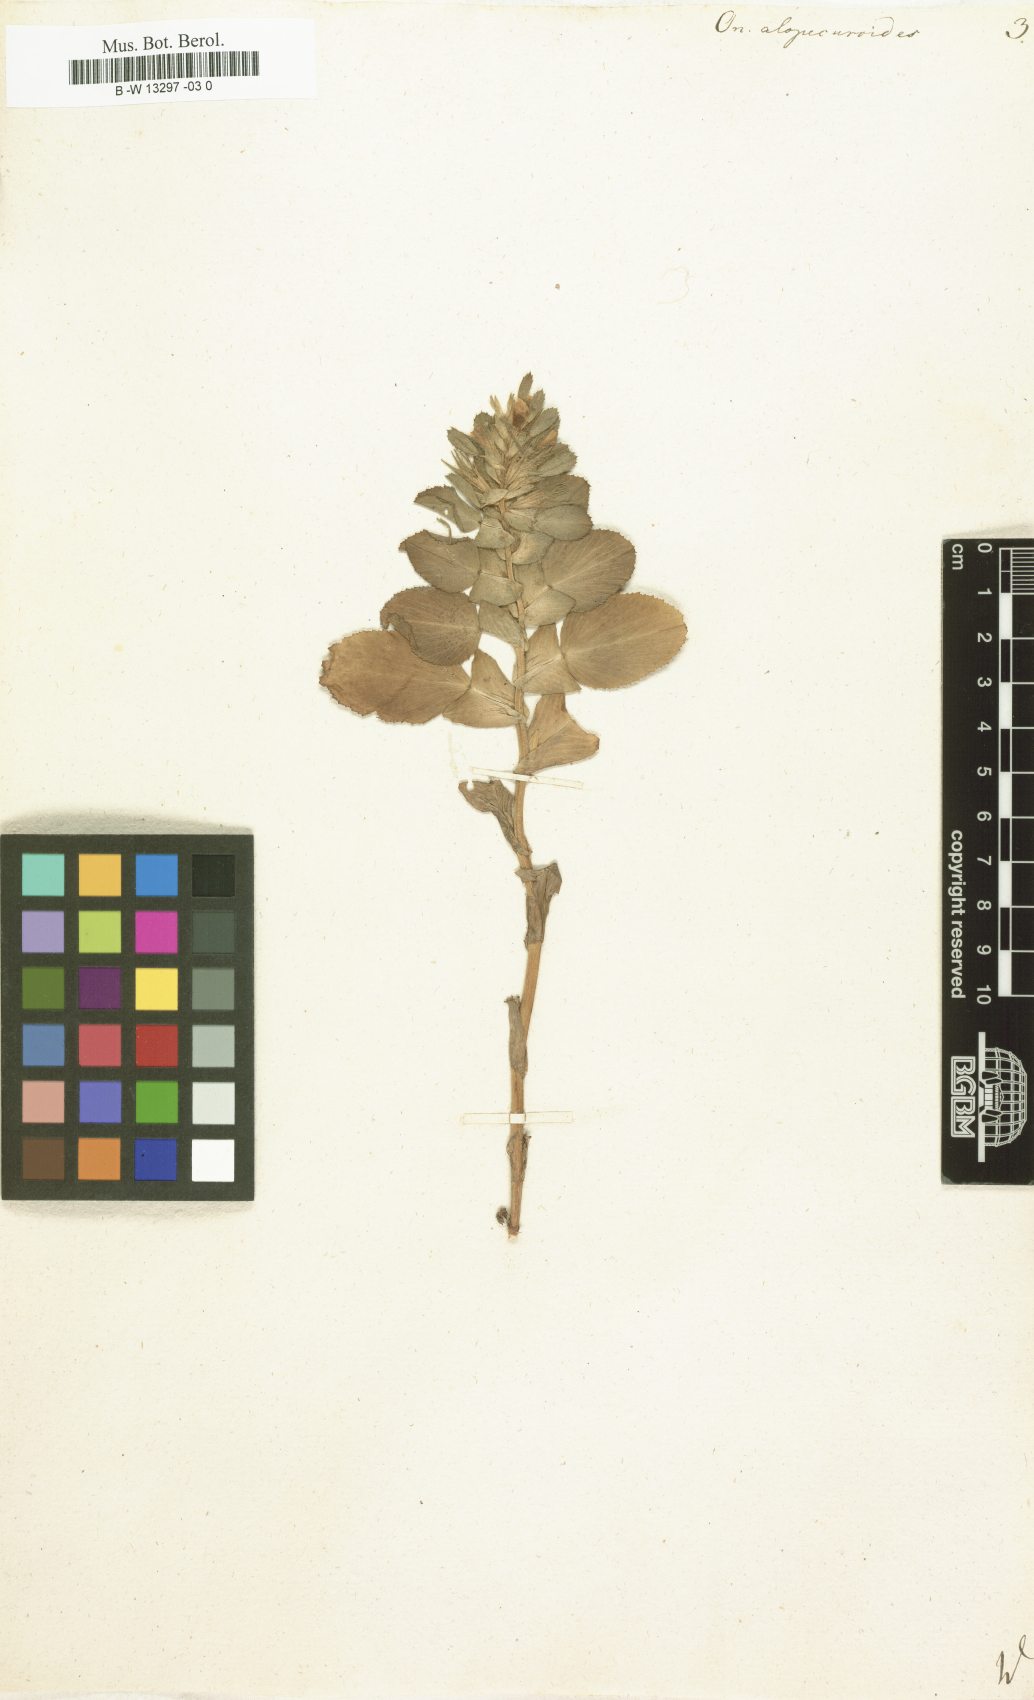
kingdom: Plantae
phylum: Tracheophyta
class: Magnoliopsida
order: Fabales
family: Fabaceae
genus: Ononis
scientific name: Ononis alopecuroides
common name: Salzmann's restharrow
